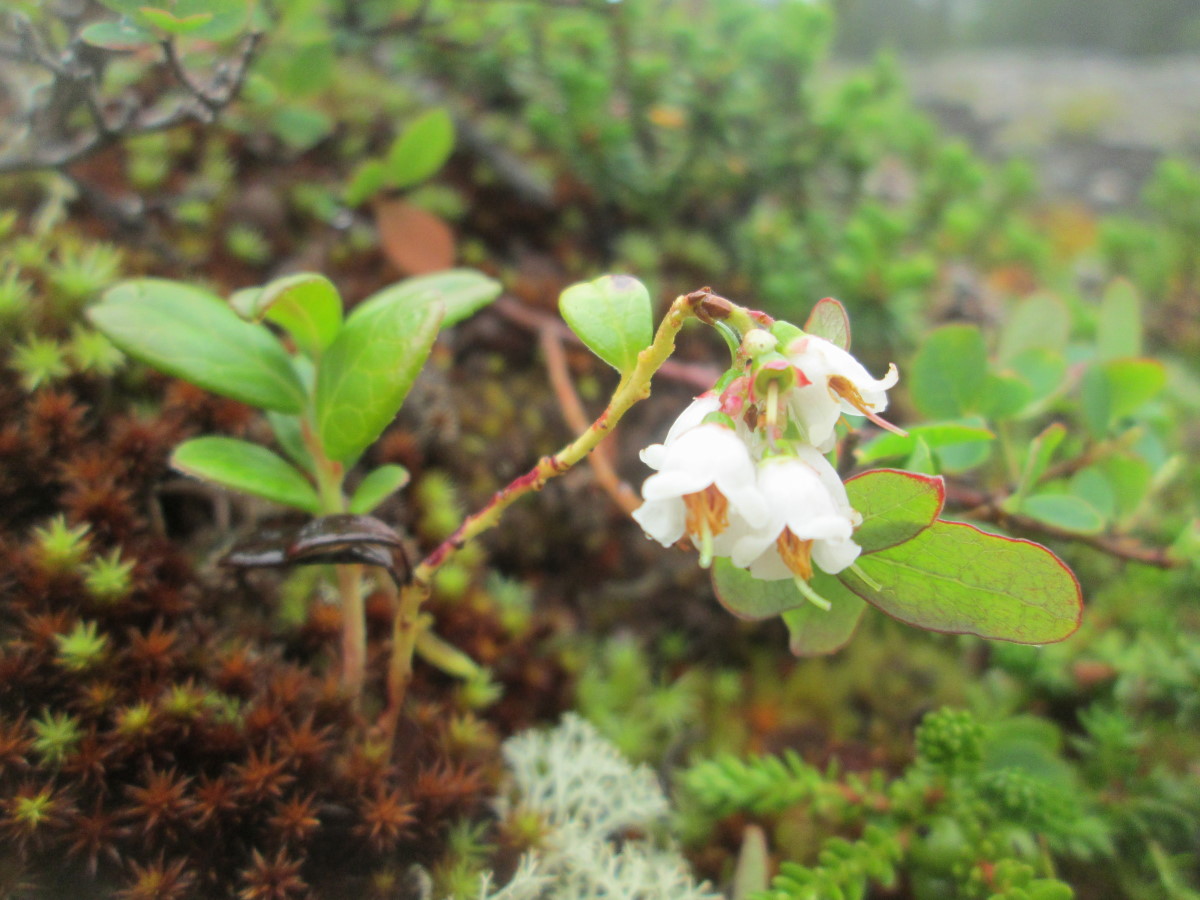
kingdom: Plantae
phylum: Tracheophyta
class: Magnoliopsida
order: Ericales
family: Ericaceae
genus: Vaccinium
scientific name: Vaccinium vitis-idaea
